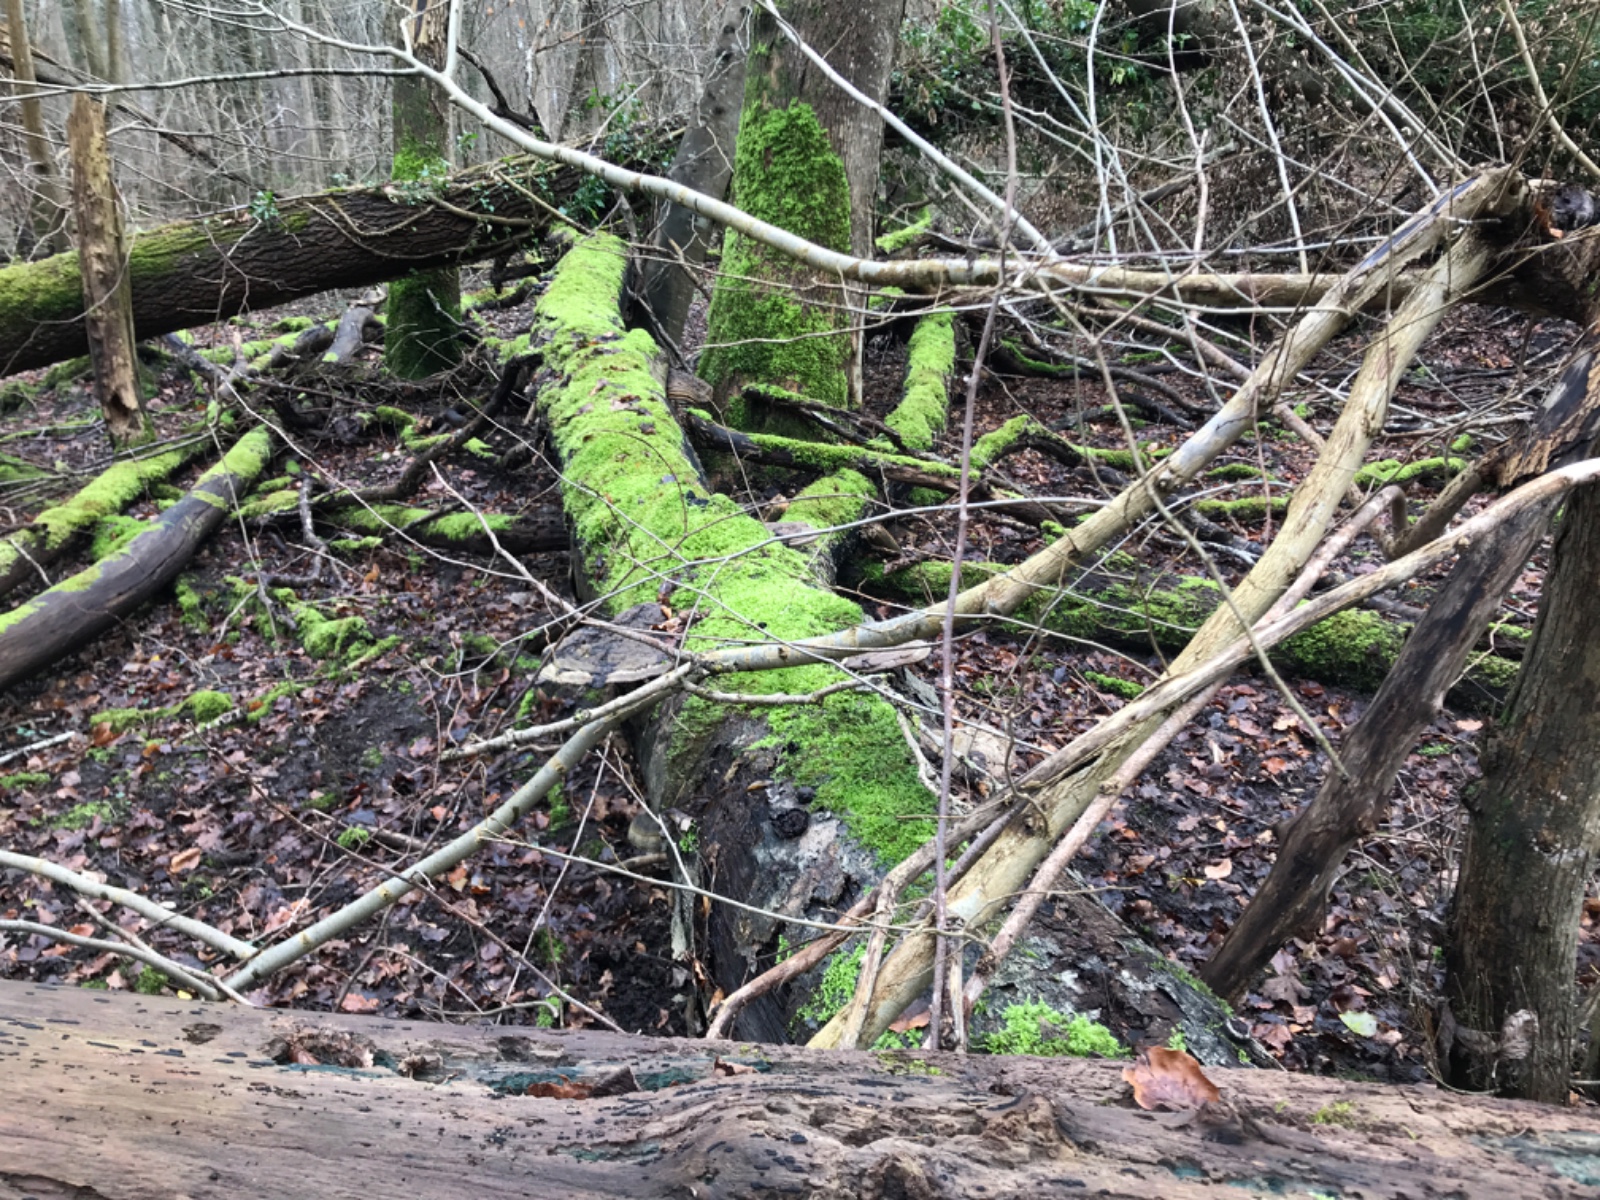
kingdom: Fungi
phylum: Basidiomycota
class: Agaricomycetes
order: Polyporales
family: Polyporaceae
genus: Ganoderma
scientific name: Ganoderma applanatum
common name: flad lakporesvamp
